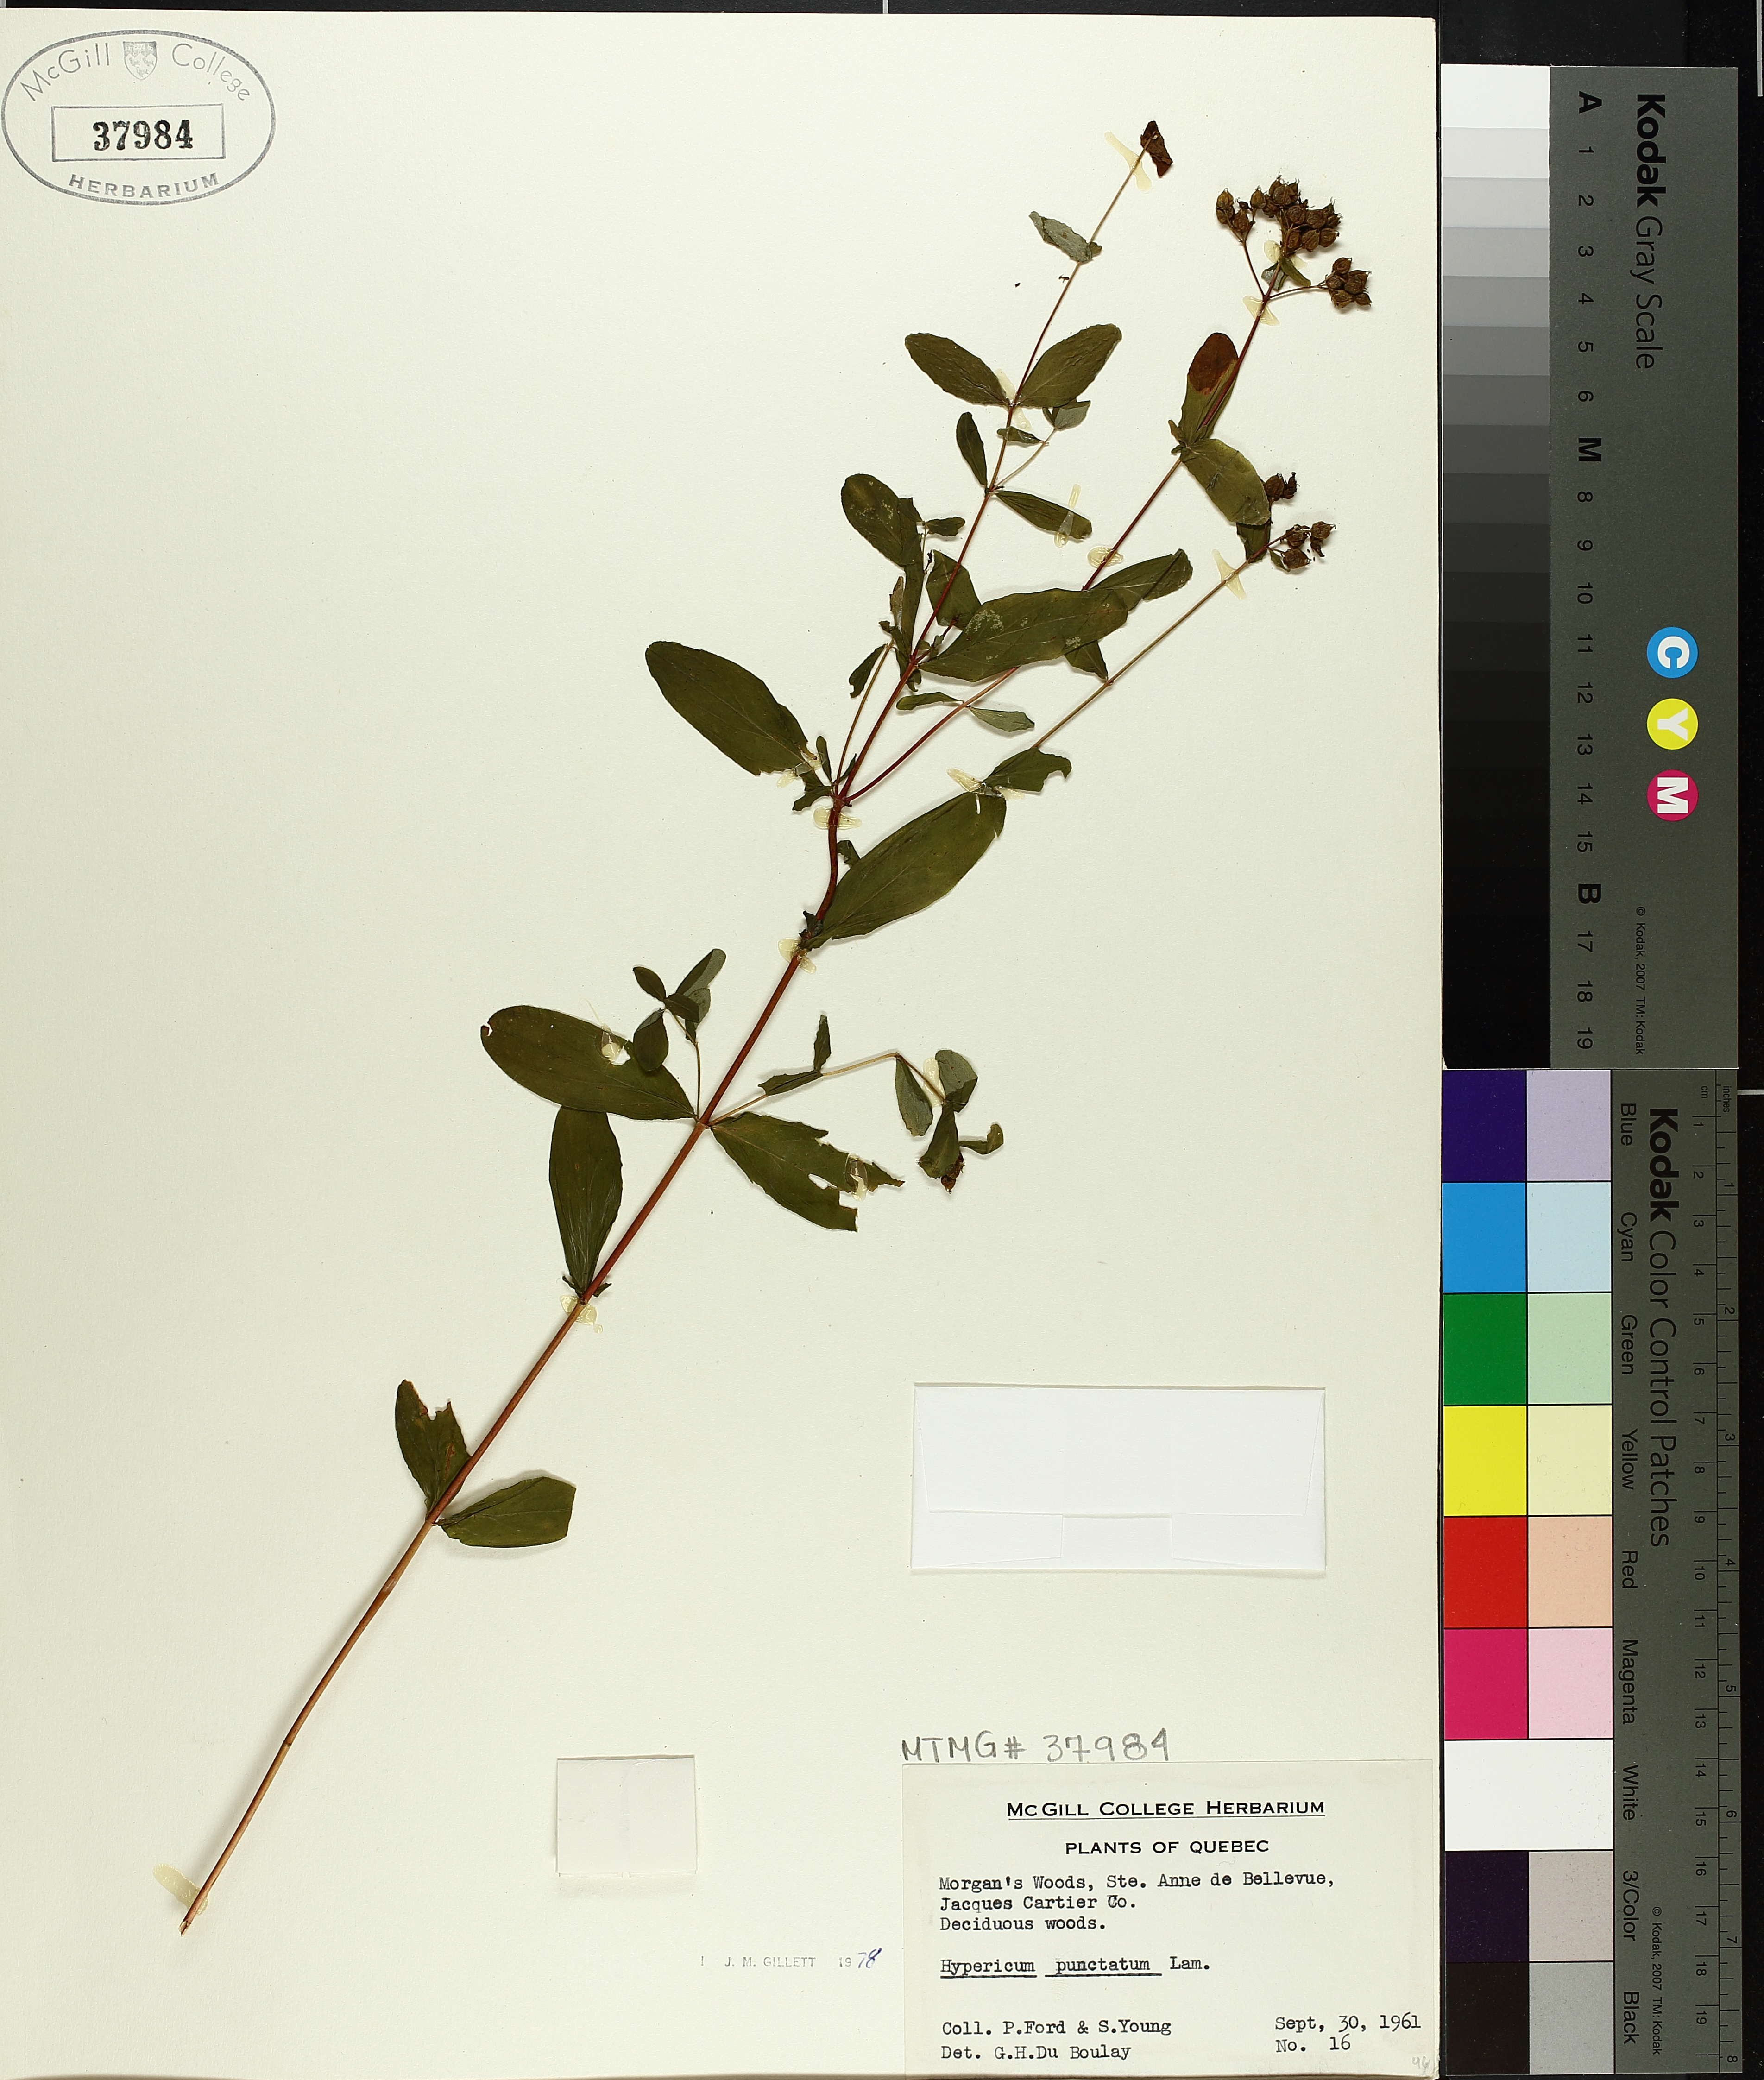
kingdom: Plantae
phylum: Tracheophyta
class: Magnoliopsida
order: Malpighiales
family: Hypericaceae
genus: Hypericum
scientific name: Hypericum punctatum
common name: Spotted st. john's-wort
